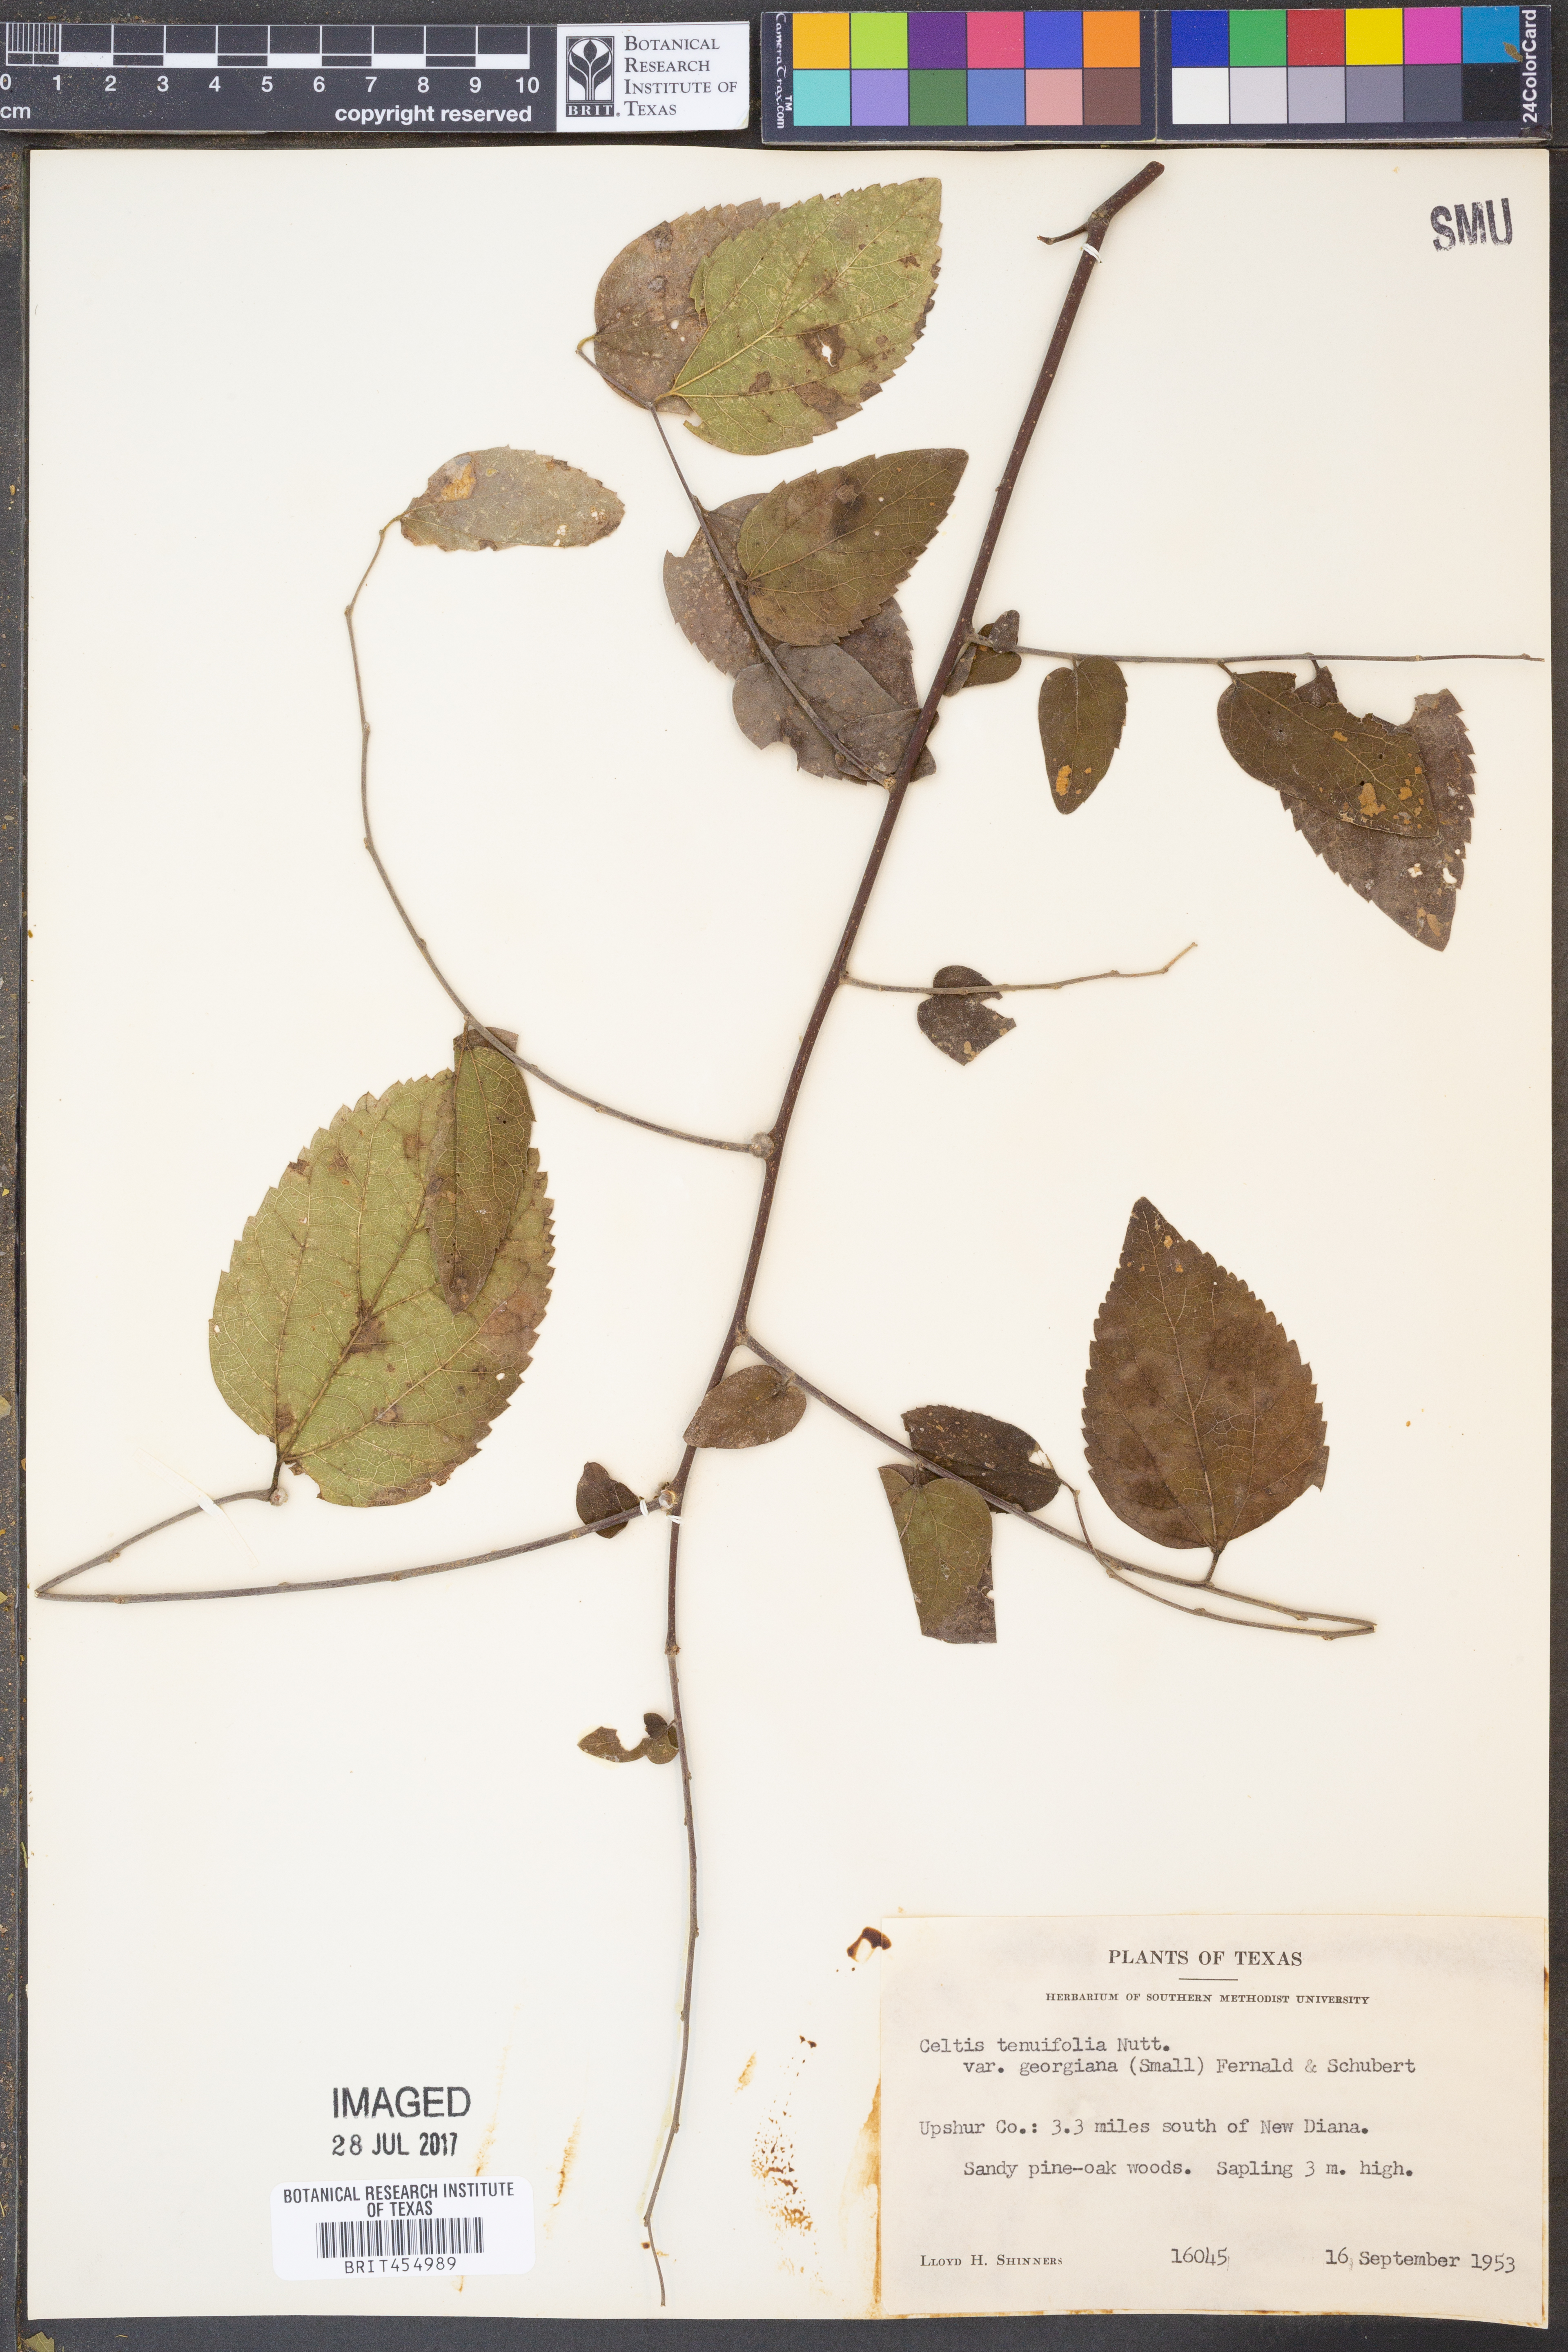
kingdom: Plantae
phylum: Tracheophyta
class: Magnoliopsida
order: Rosales
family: Cannabaceae
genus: Celtis
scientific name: Celtis tenuifolia
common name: Georgia hackberry
